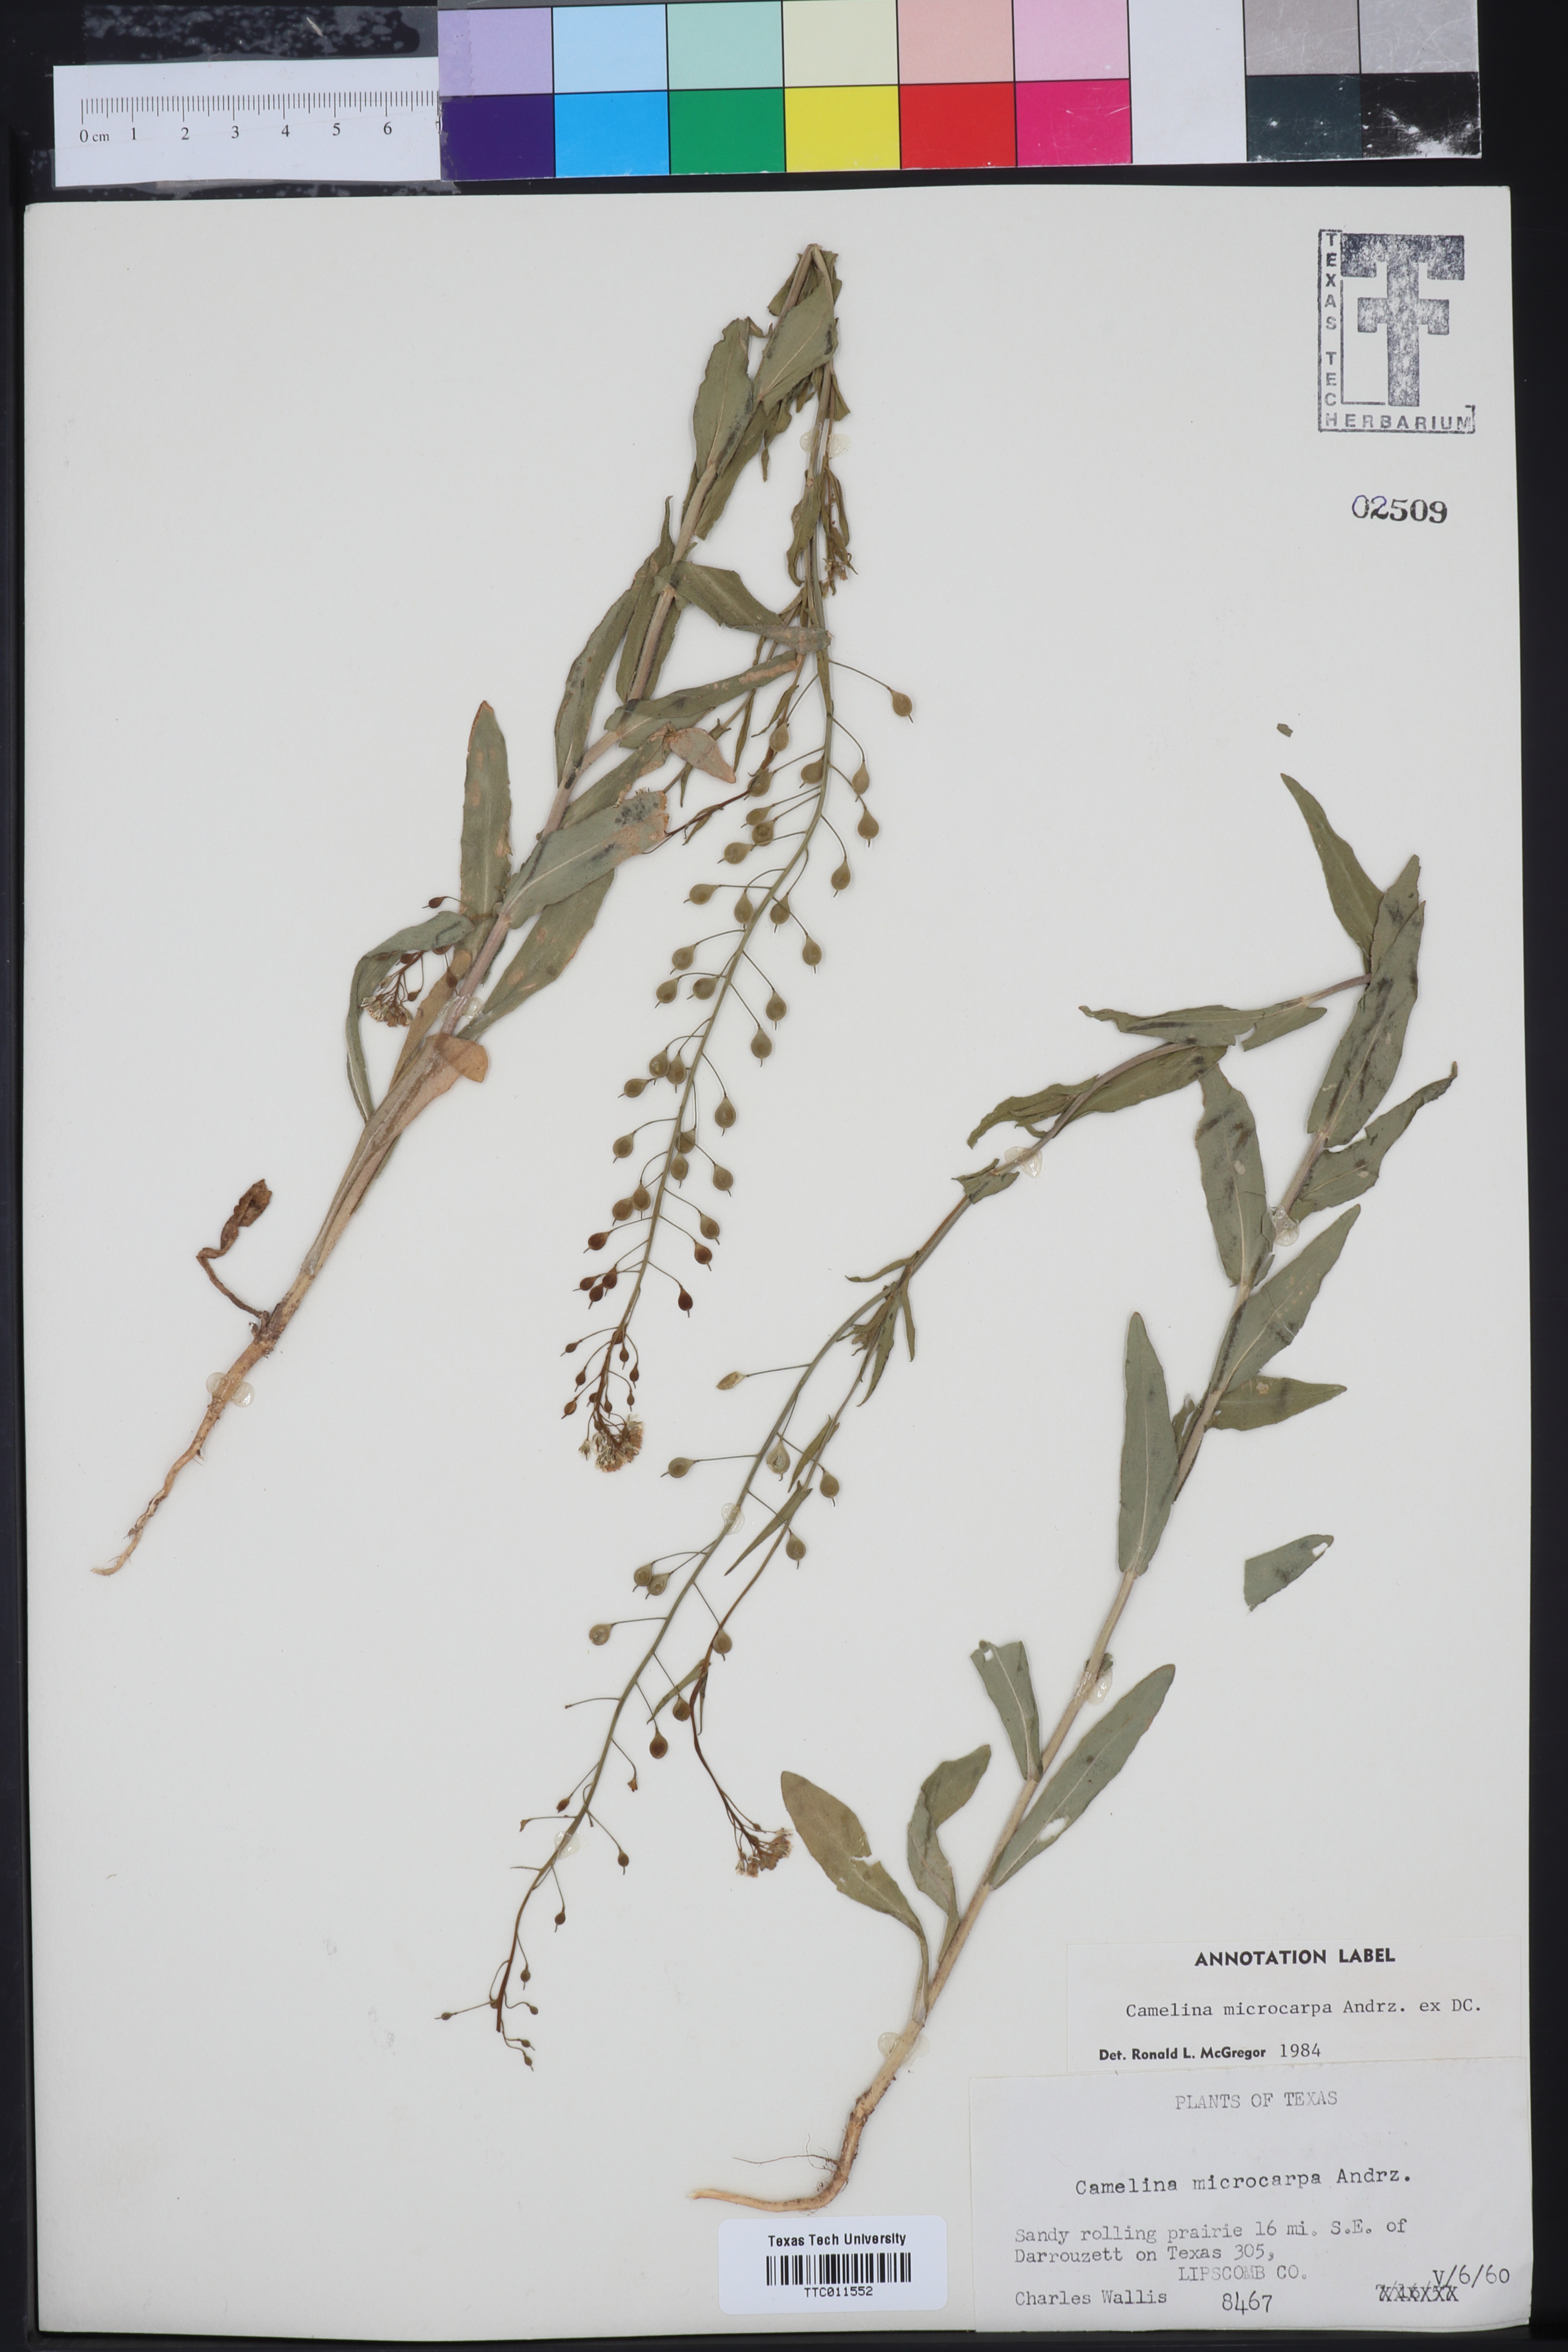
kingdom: Plantae
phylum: Tracheophyta
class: Magnoliopsida
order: Brassicales
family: Brassicaceae
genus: Camelina
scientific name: Camelina microcarpa
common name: Lesser gold-of-pleasure
